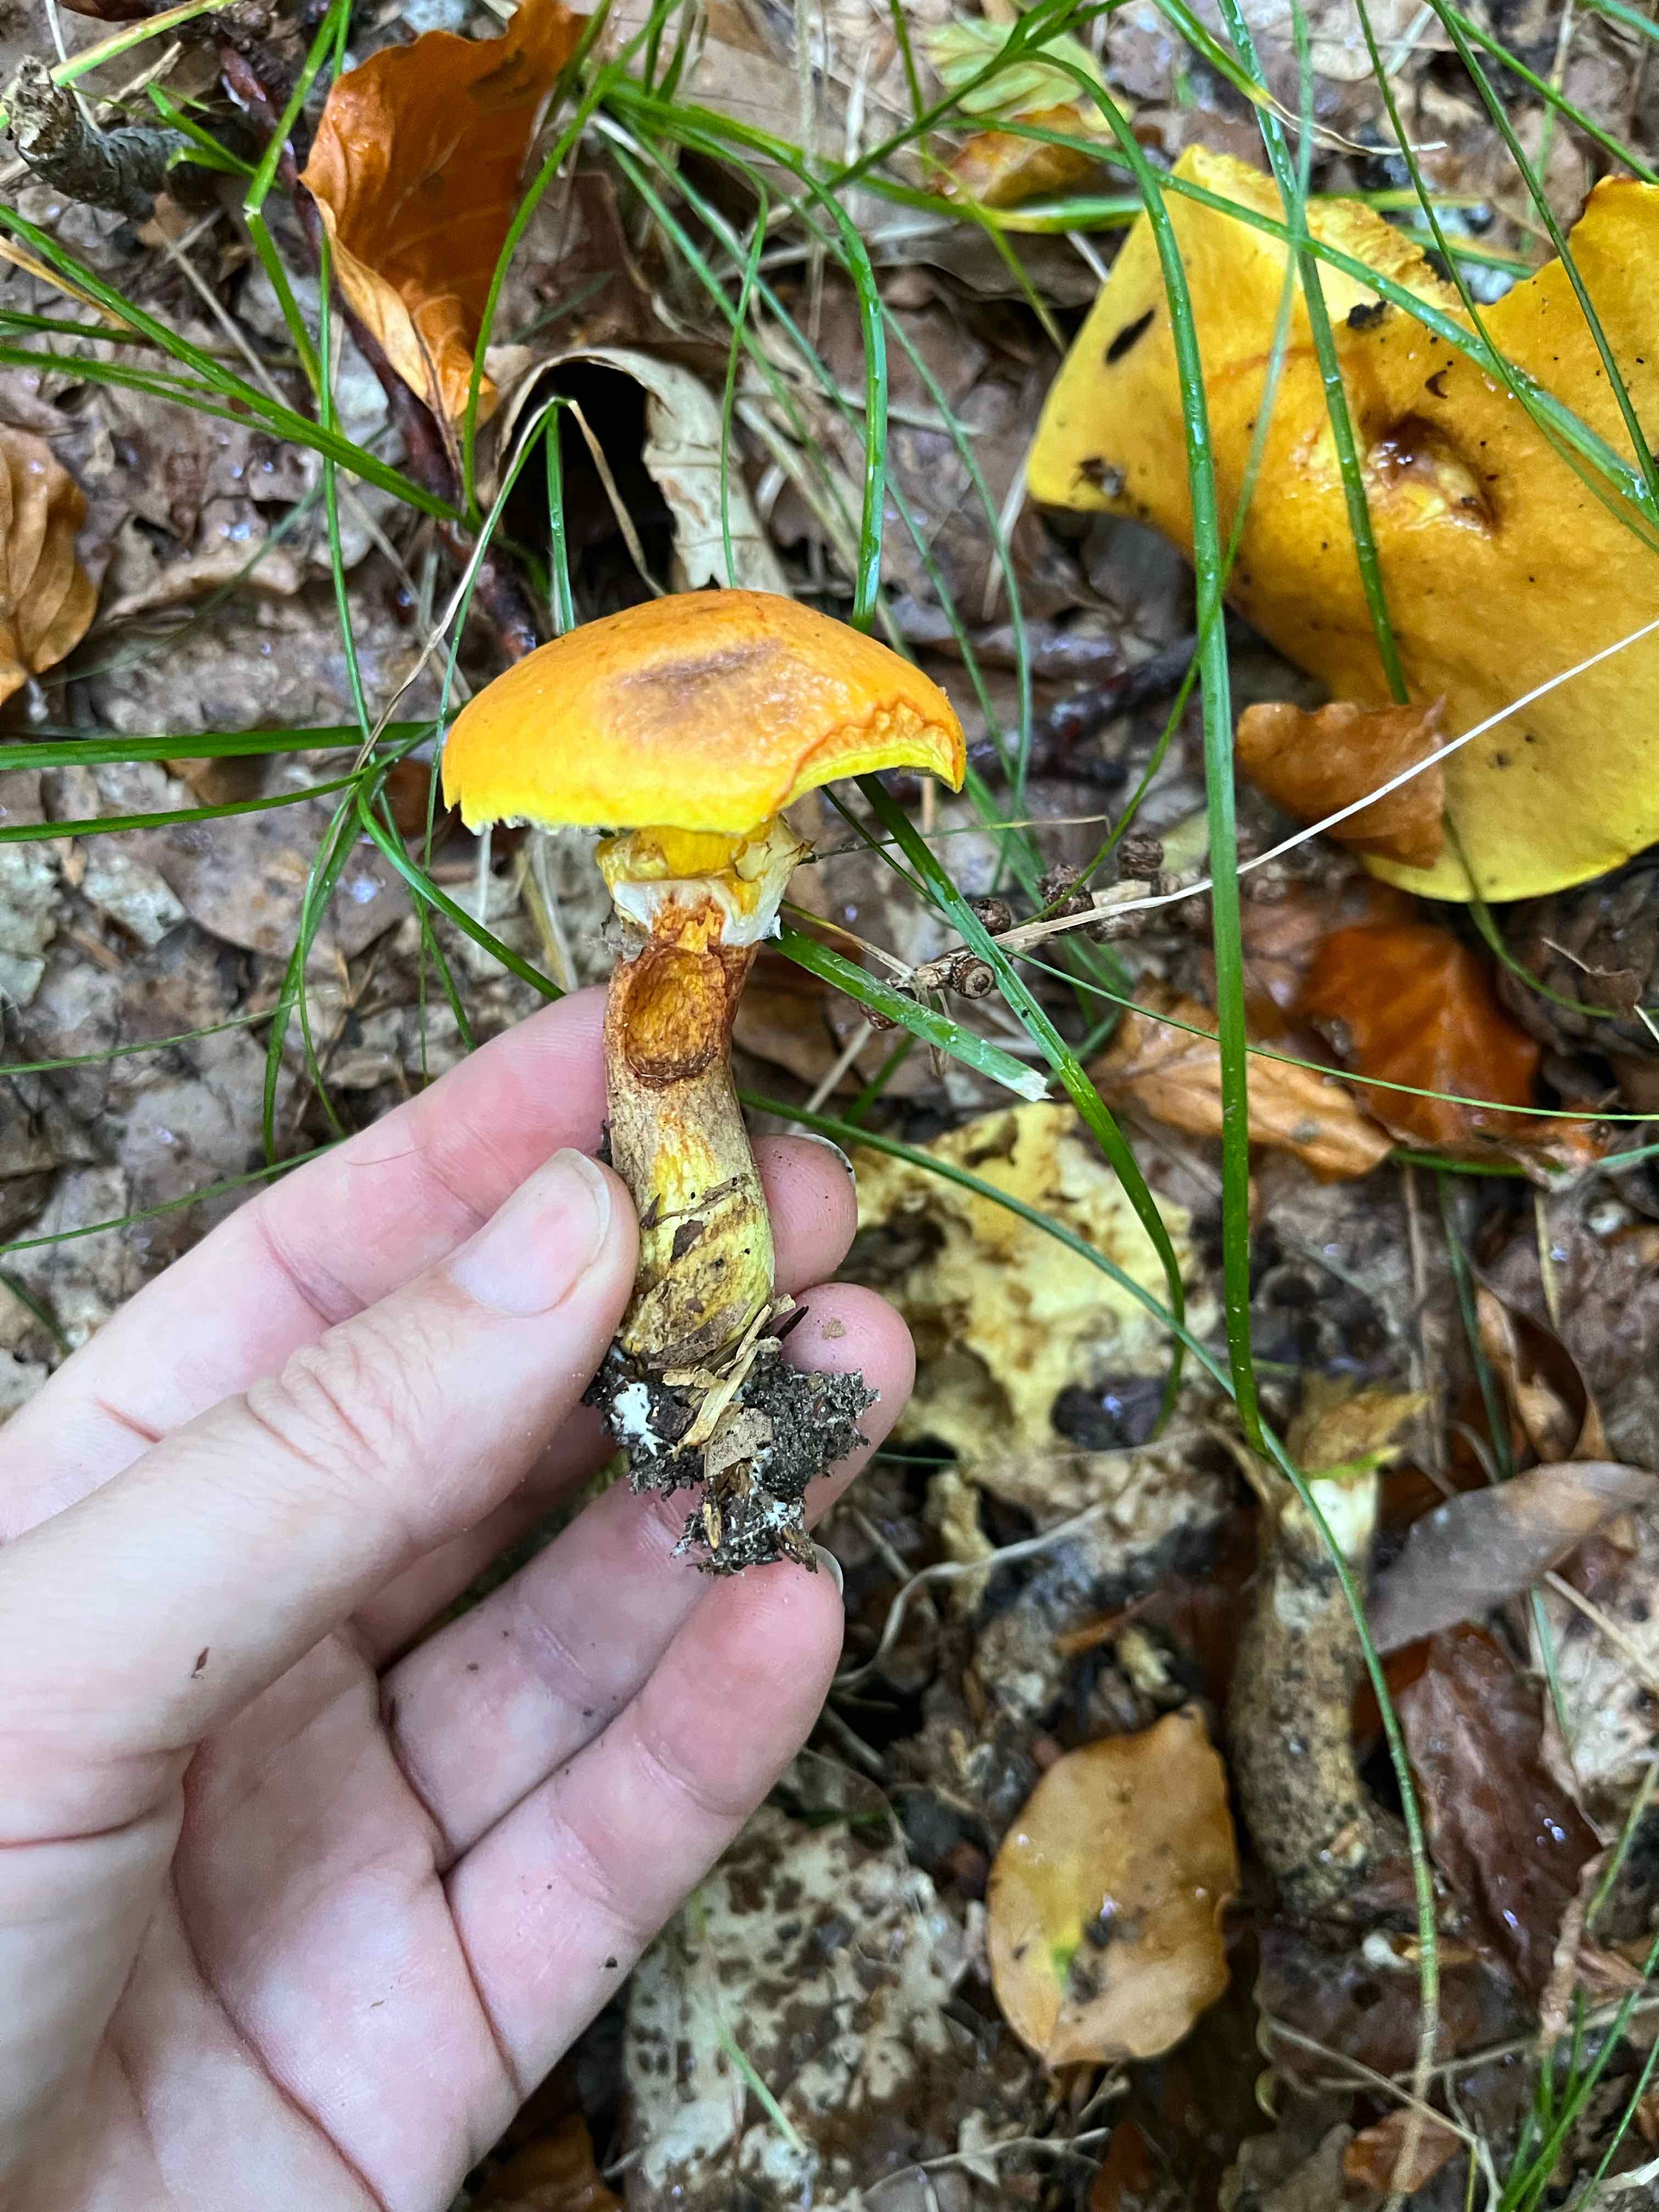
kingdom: Fungi
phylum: Basidiomycota
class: Agaricomycetes
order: Boletales
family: Suillaceae
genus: Suillus
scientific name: Suillus grevillei
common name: lærke-slimrørhat
